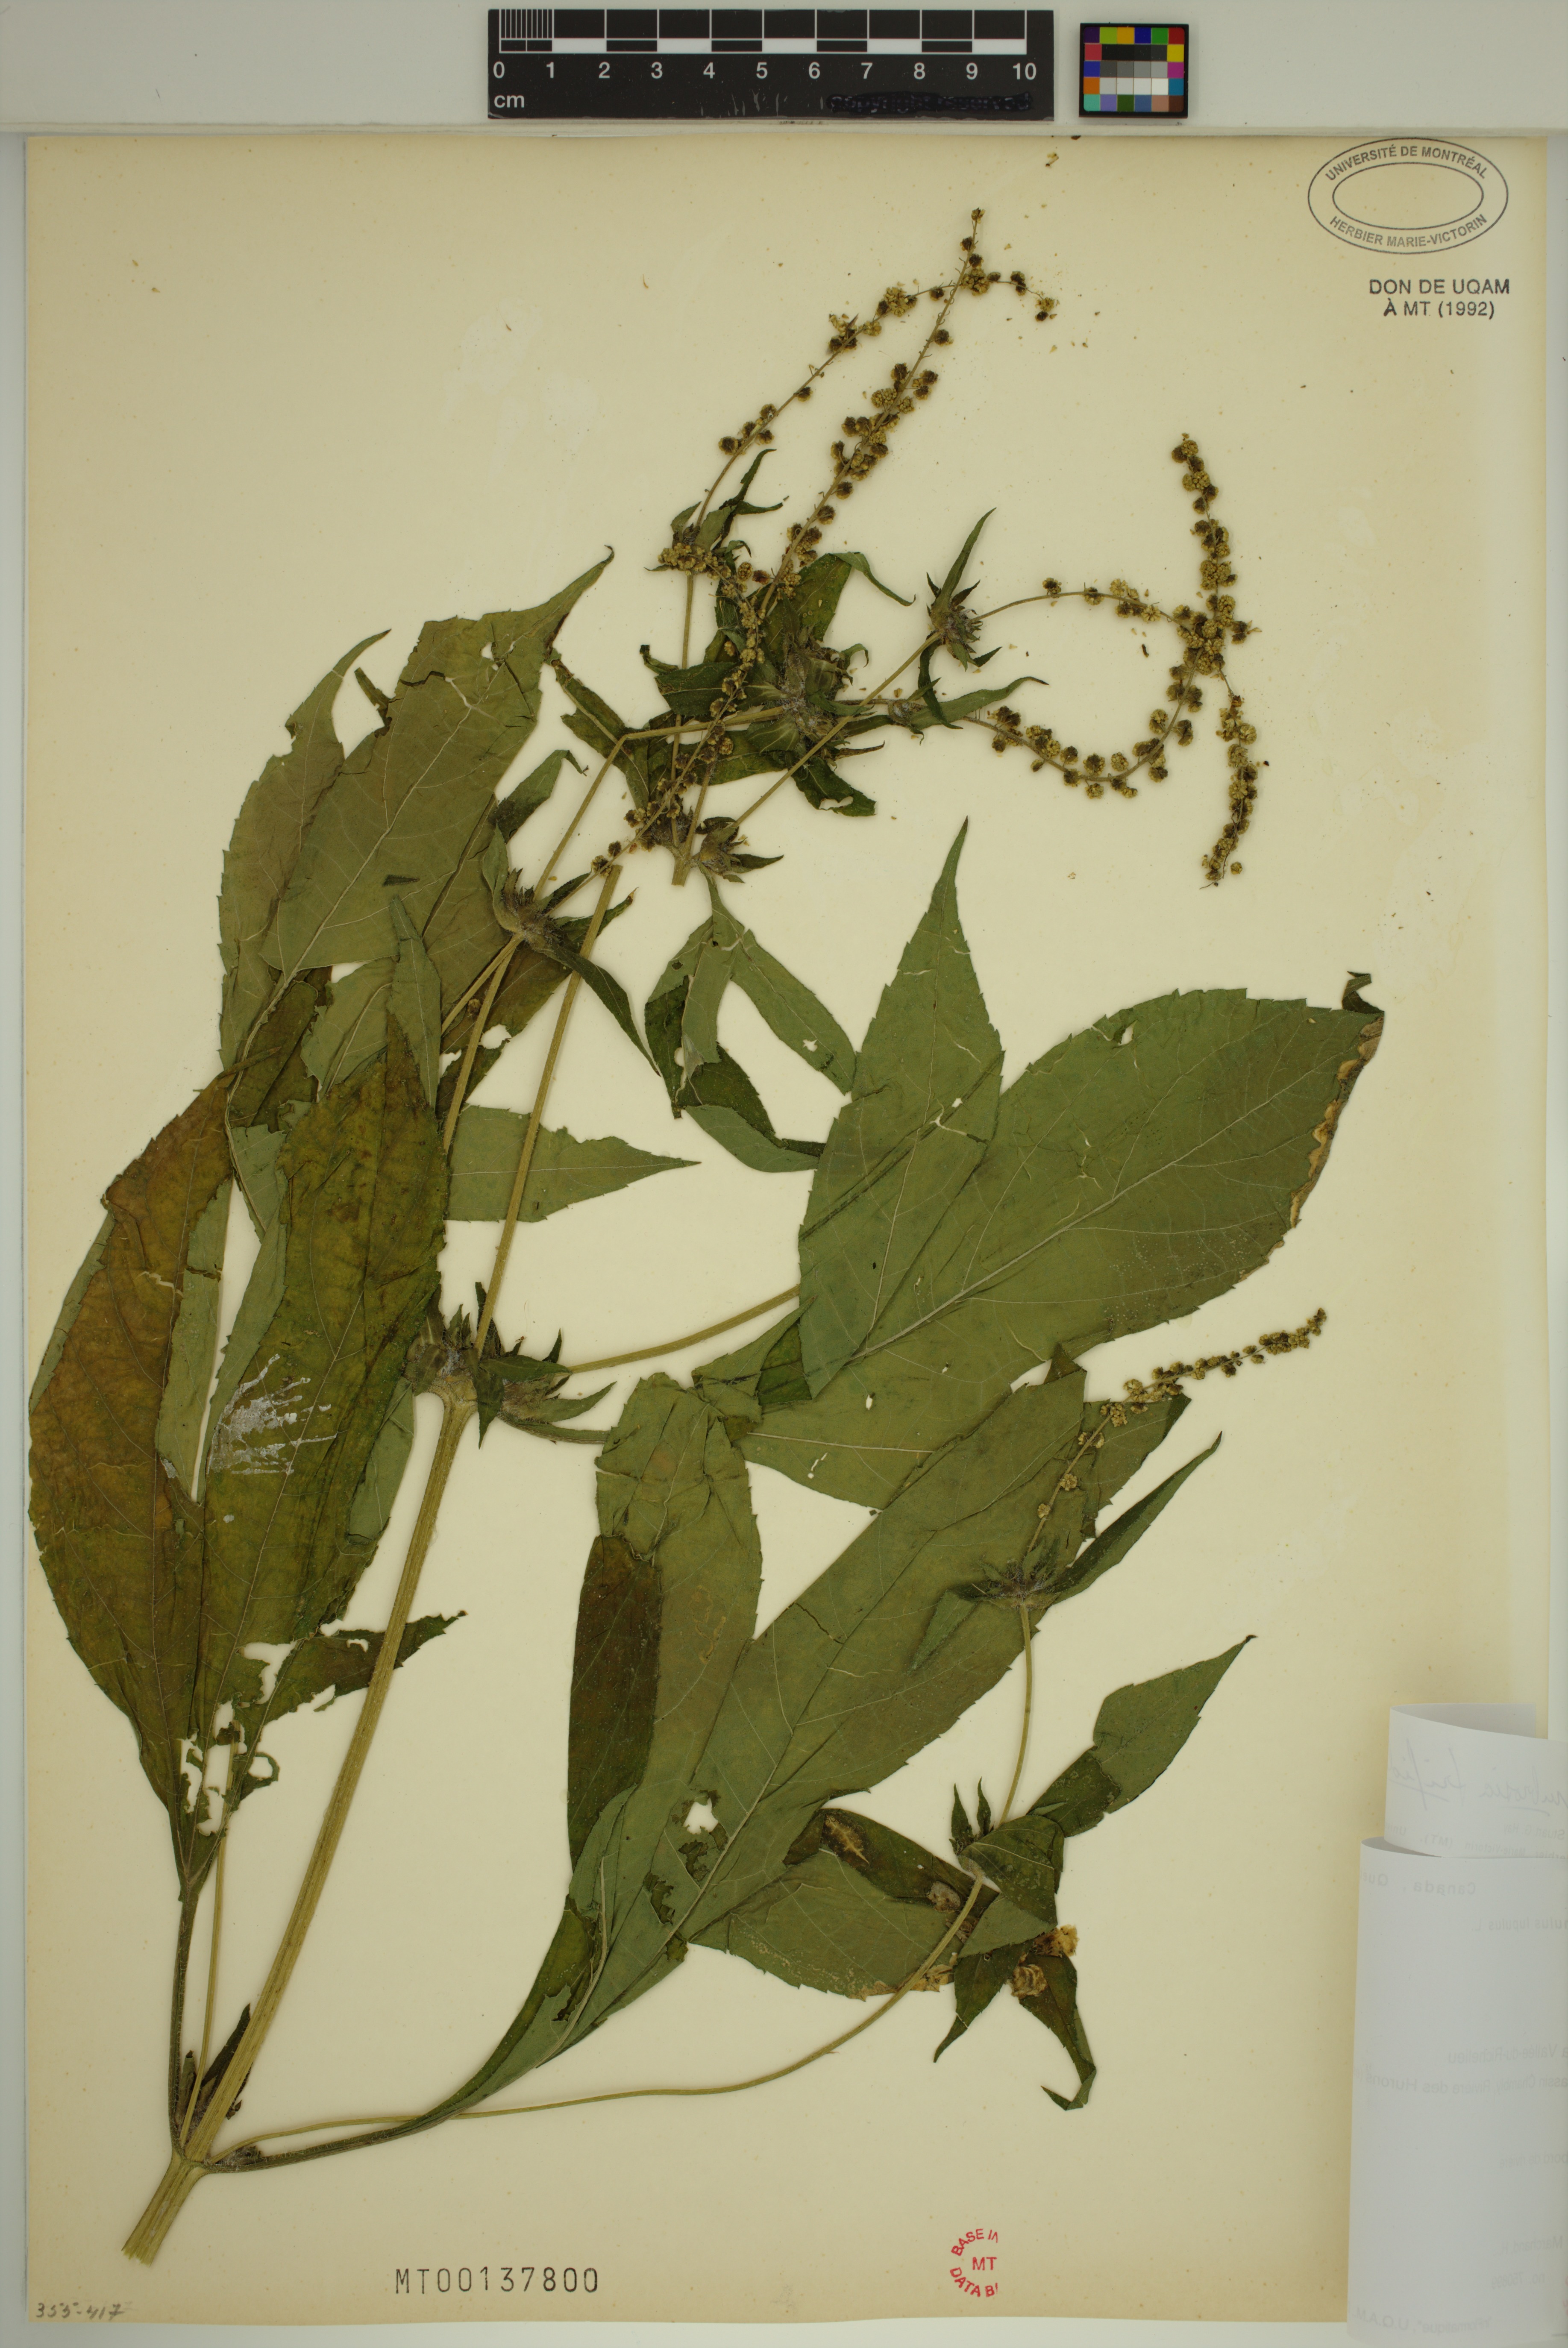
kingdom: Plantae
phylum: Tracheophyta
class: Magnoliopsida
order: Asterales
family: Asteraceae
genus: Ambrosia
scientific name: Ambrosia trifida
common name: Giant ragweed
